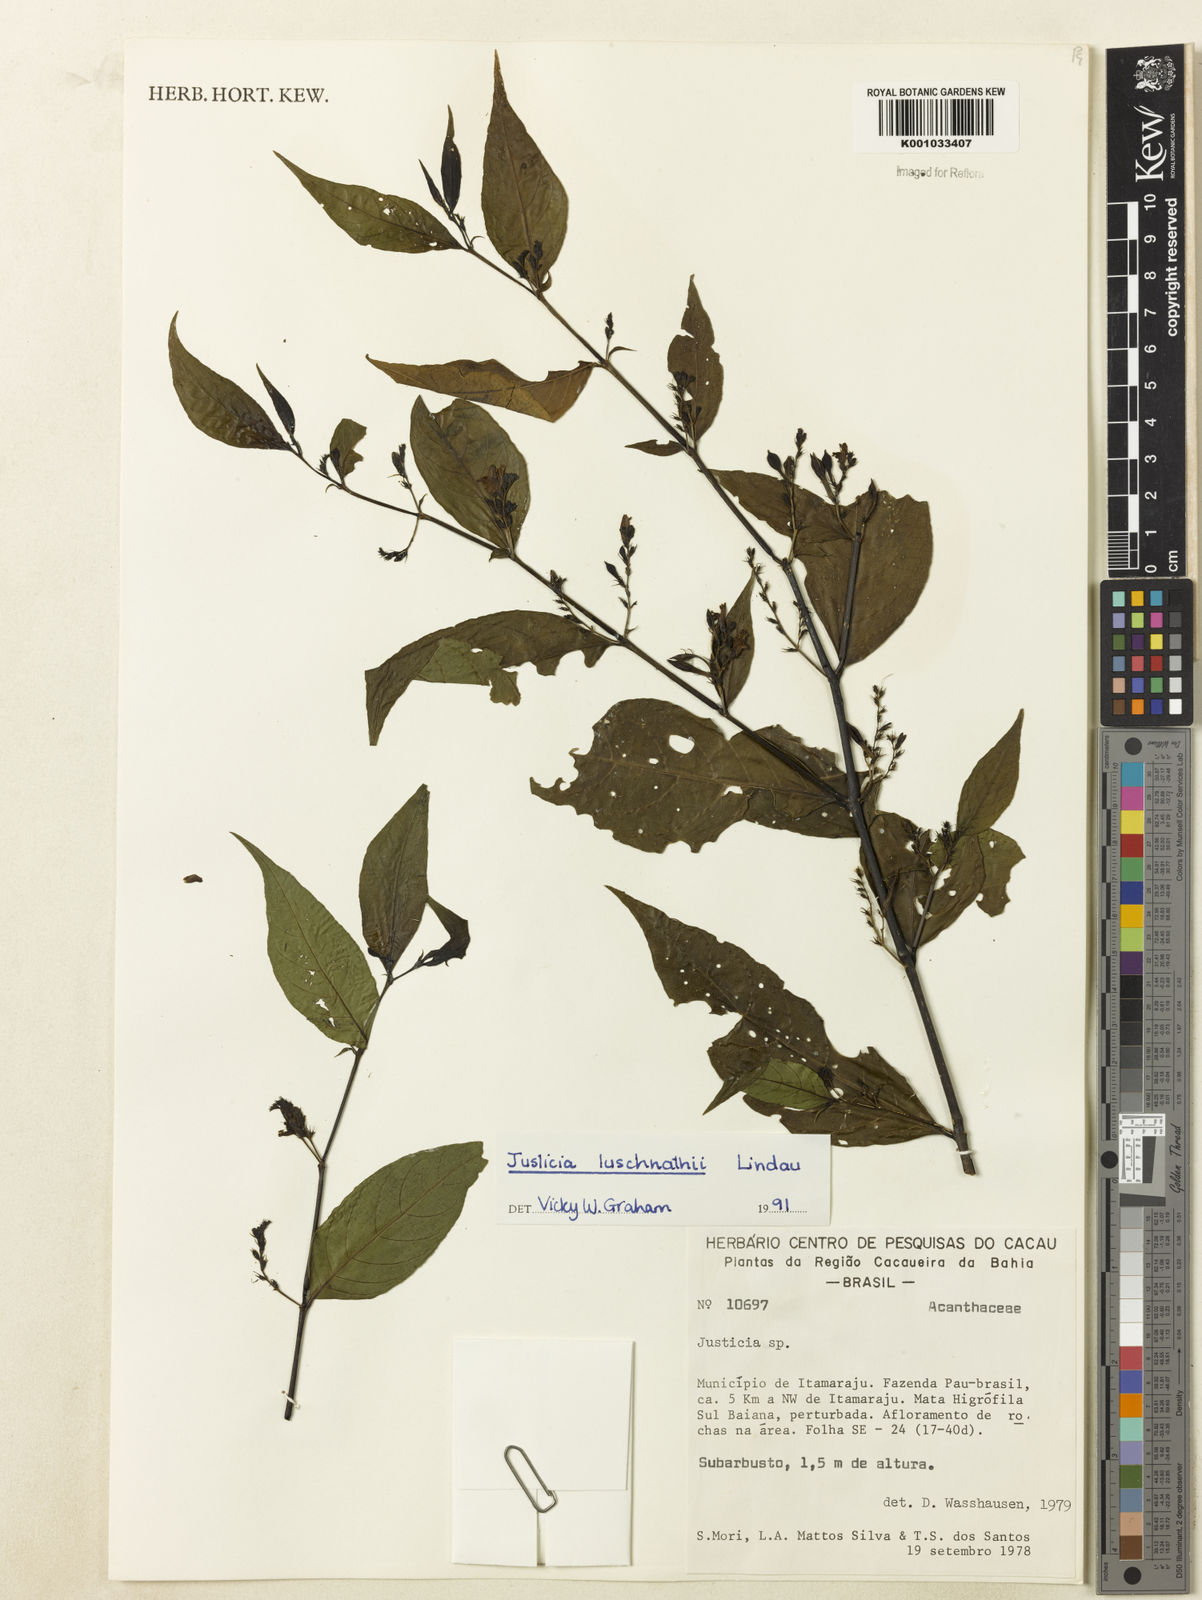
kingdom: Plantae
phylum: Tracheophyta
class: Magnoliopsida
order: Lamiales
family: Acanthaceae
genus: Justicia
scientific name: Justicia luschnathii
